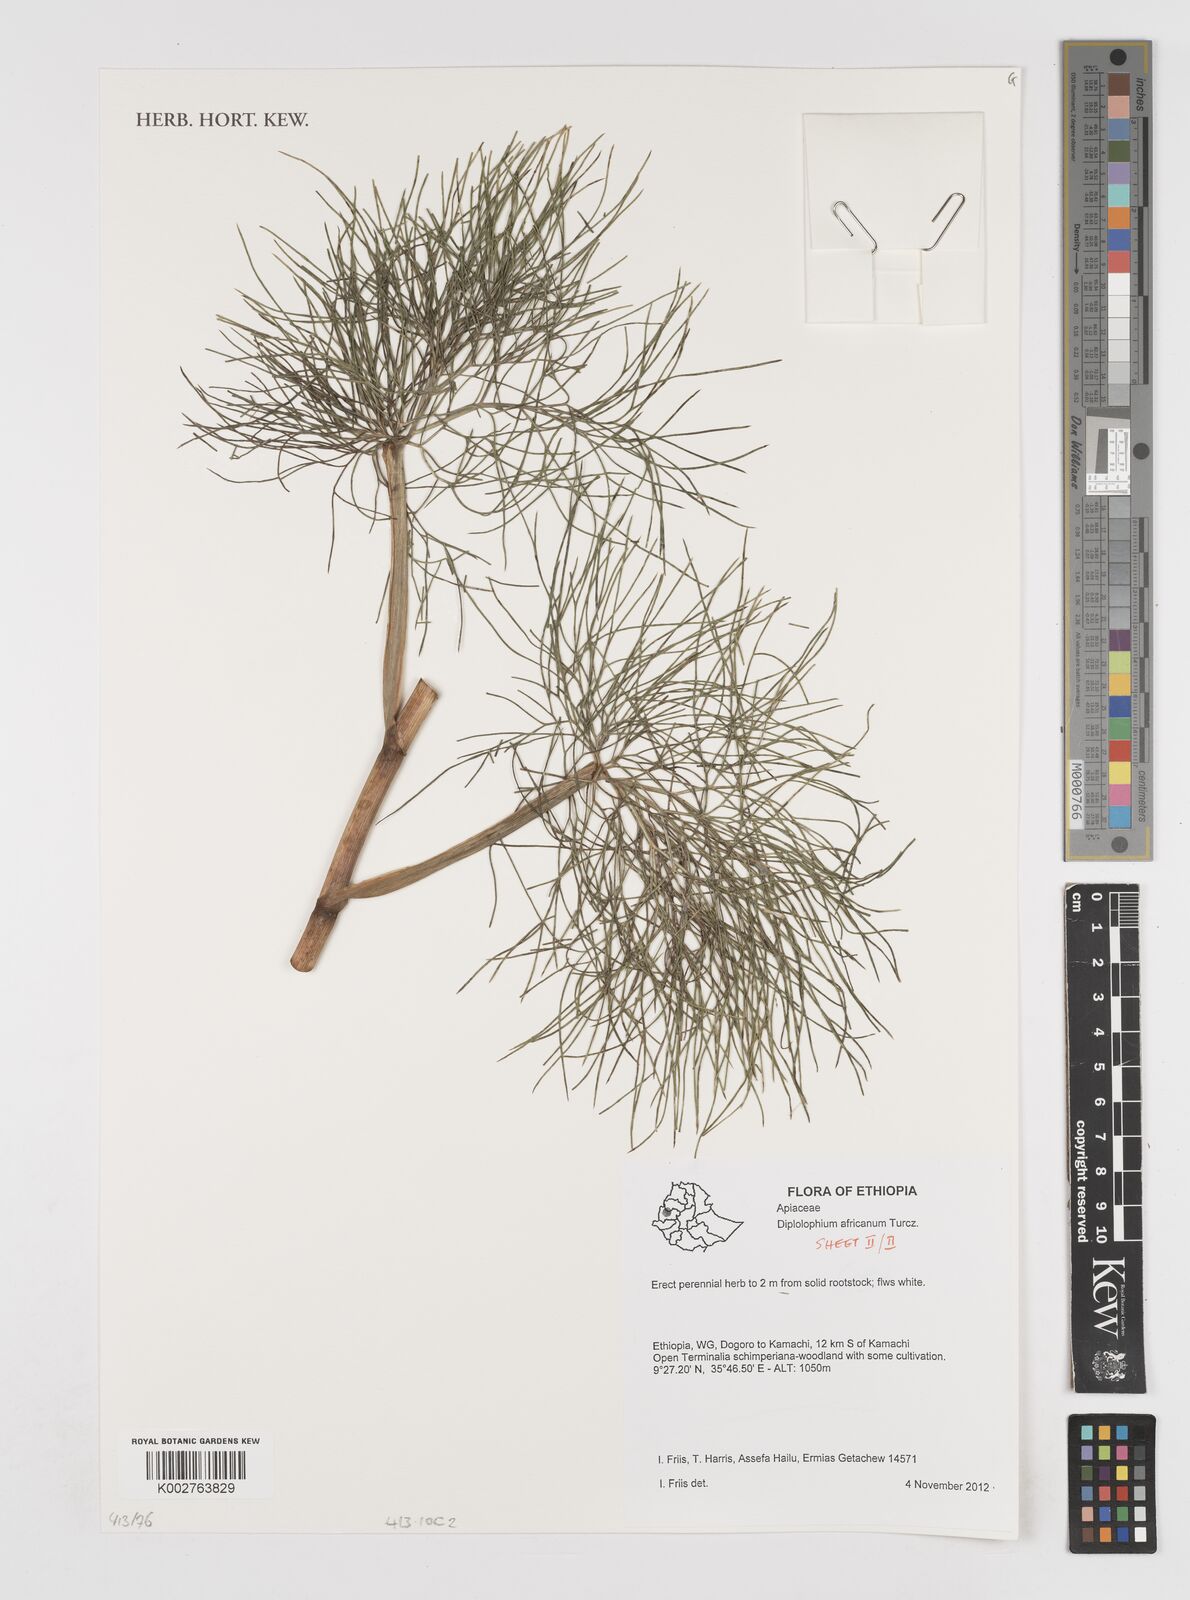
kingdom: Plantae
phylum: Tracheophyta
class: Magnoliopsida
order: Apiales
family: Apiaceae
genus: Diplolophium
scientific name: Diplolophium africanum
